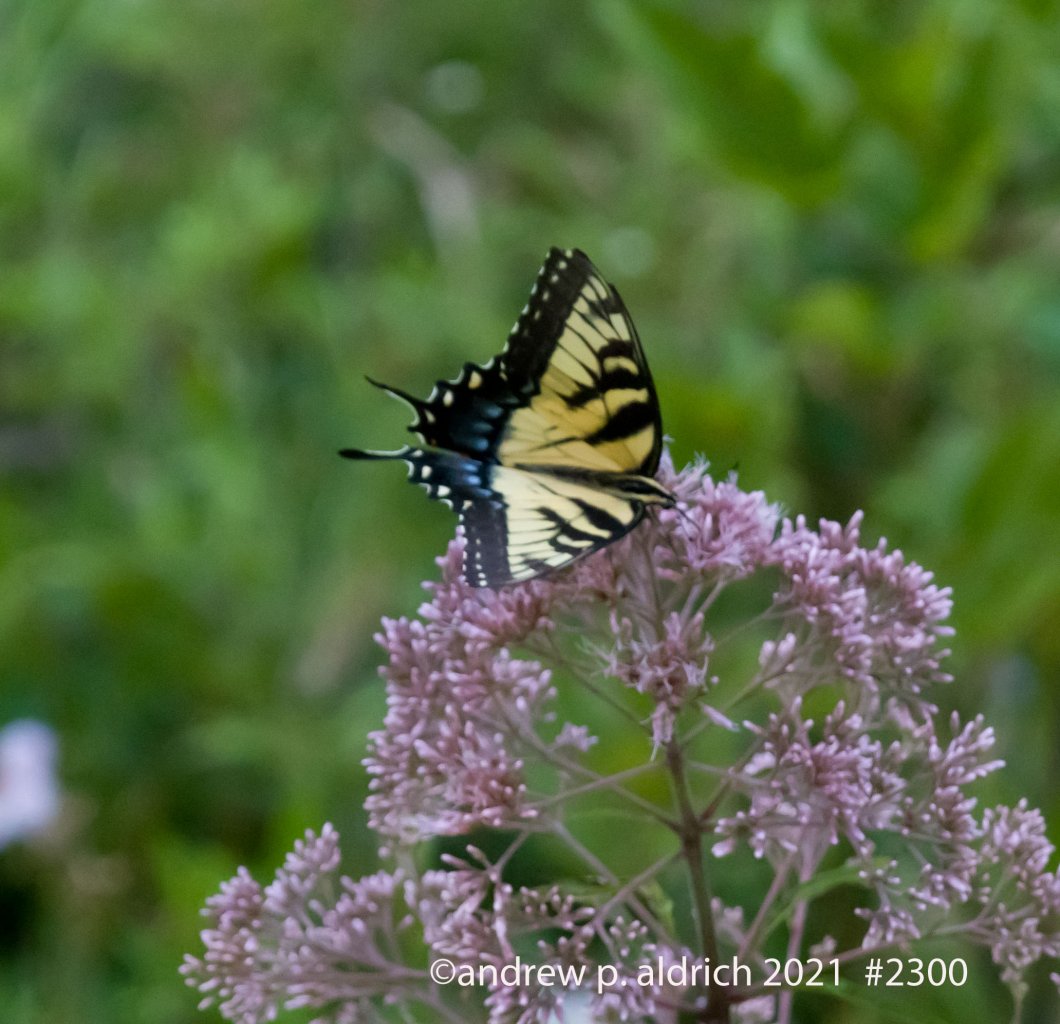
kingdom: Animalia
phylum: Arthropoda
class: Insecta
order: Lepidoptera
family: Papilionidae
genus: Pterourus
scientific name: Pterourus glaucus
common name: Eastern Tiger Swallowtail
